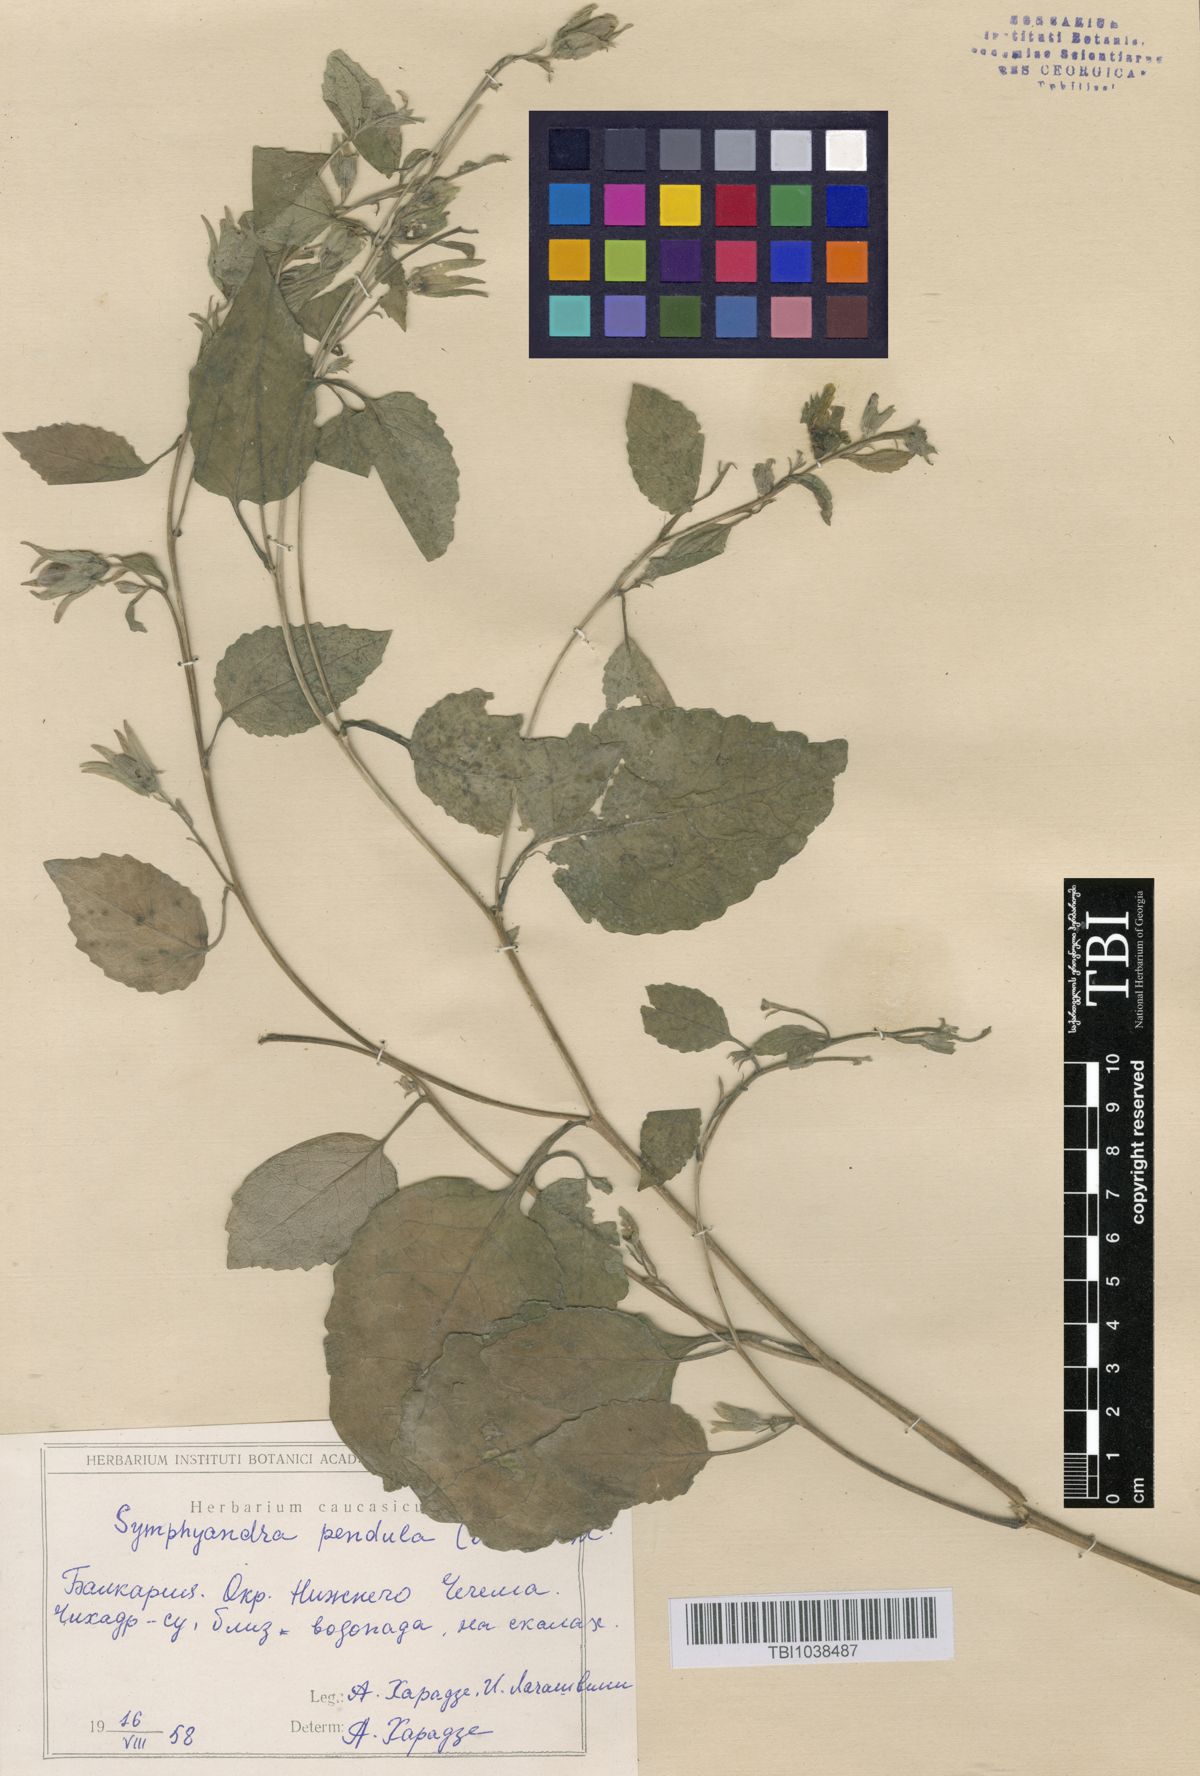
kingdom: Plantae
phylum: Tracheophyta
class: Magnoliopsida
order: Asterales
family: Campanulaceae
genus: Campanula
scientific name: Campanula pendula
